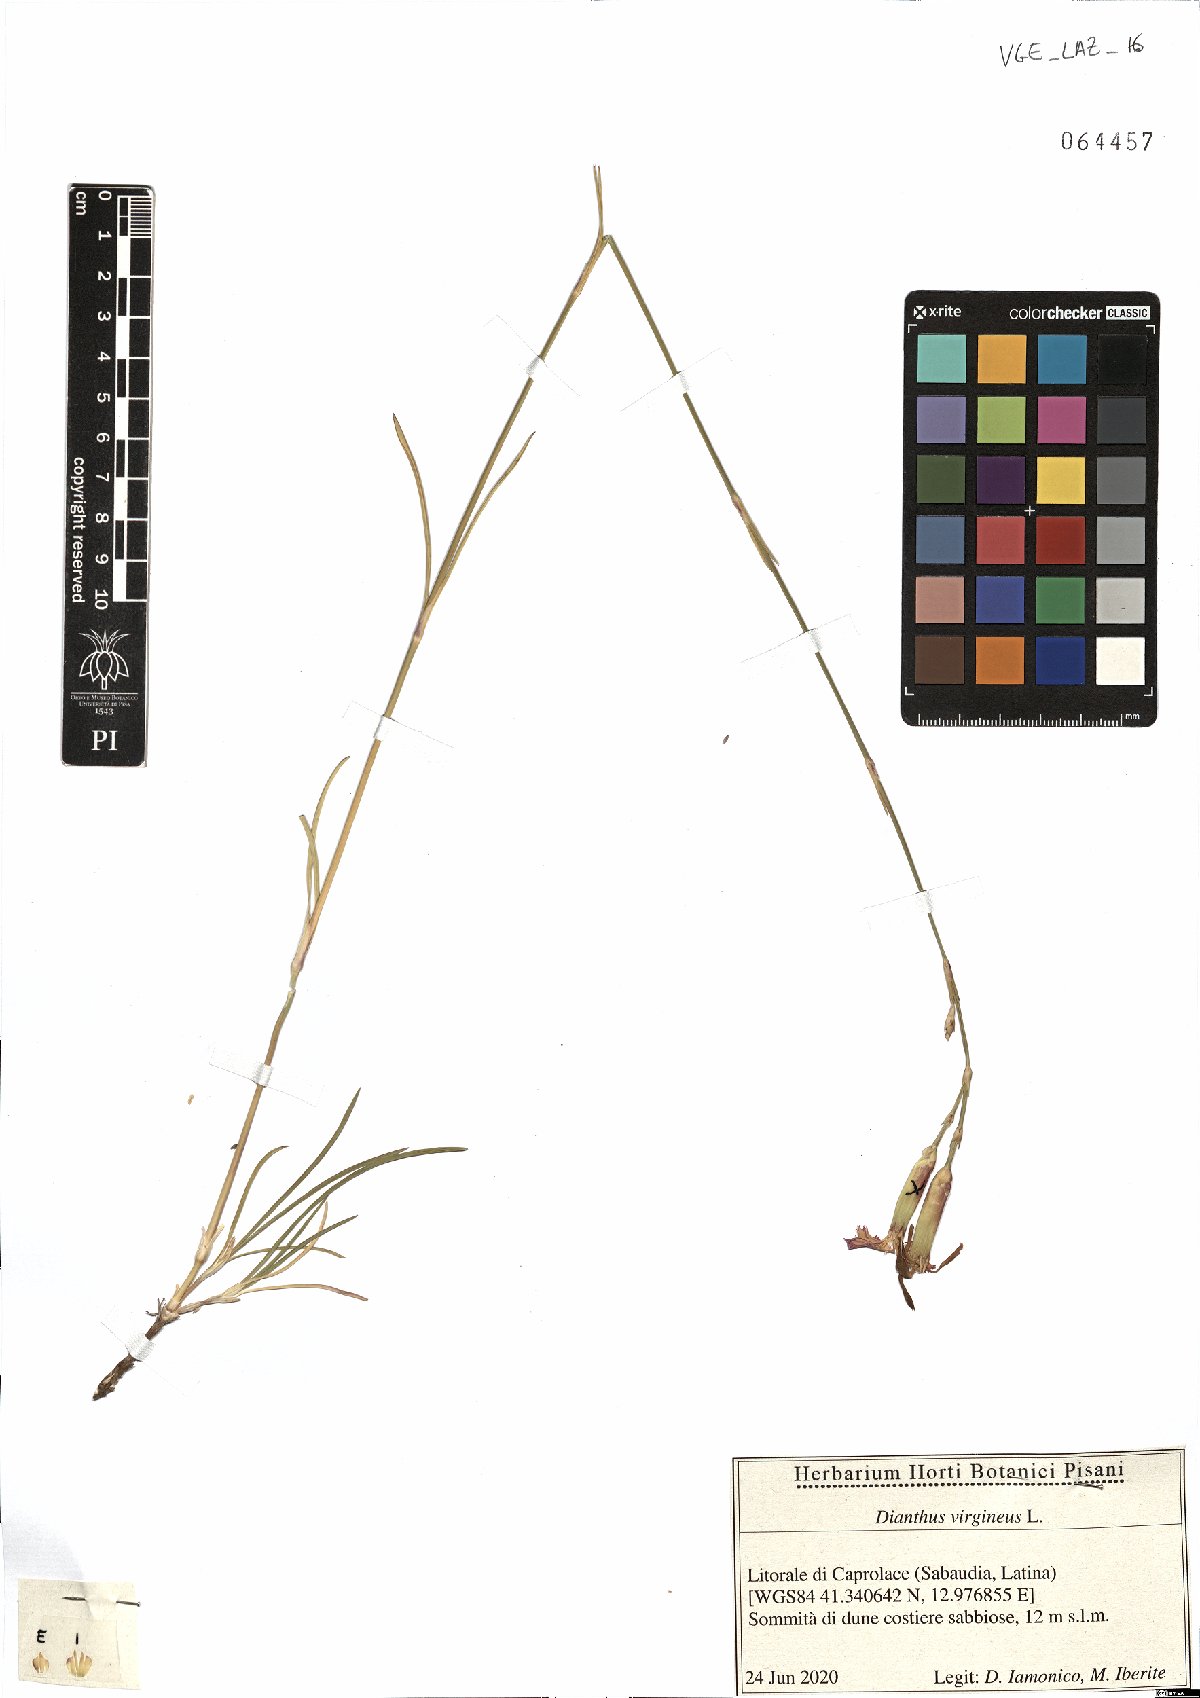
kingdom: Plantae
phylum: Tracheophyta
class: Magnoliopsida
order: Caryophyllales
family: Caryophyllaceae
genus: Dianthus
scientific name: Dianthus virgineus
